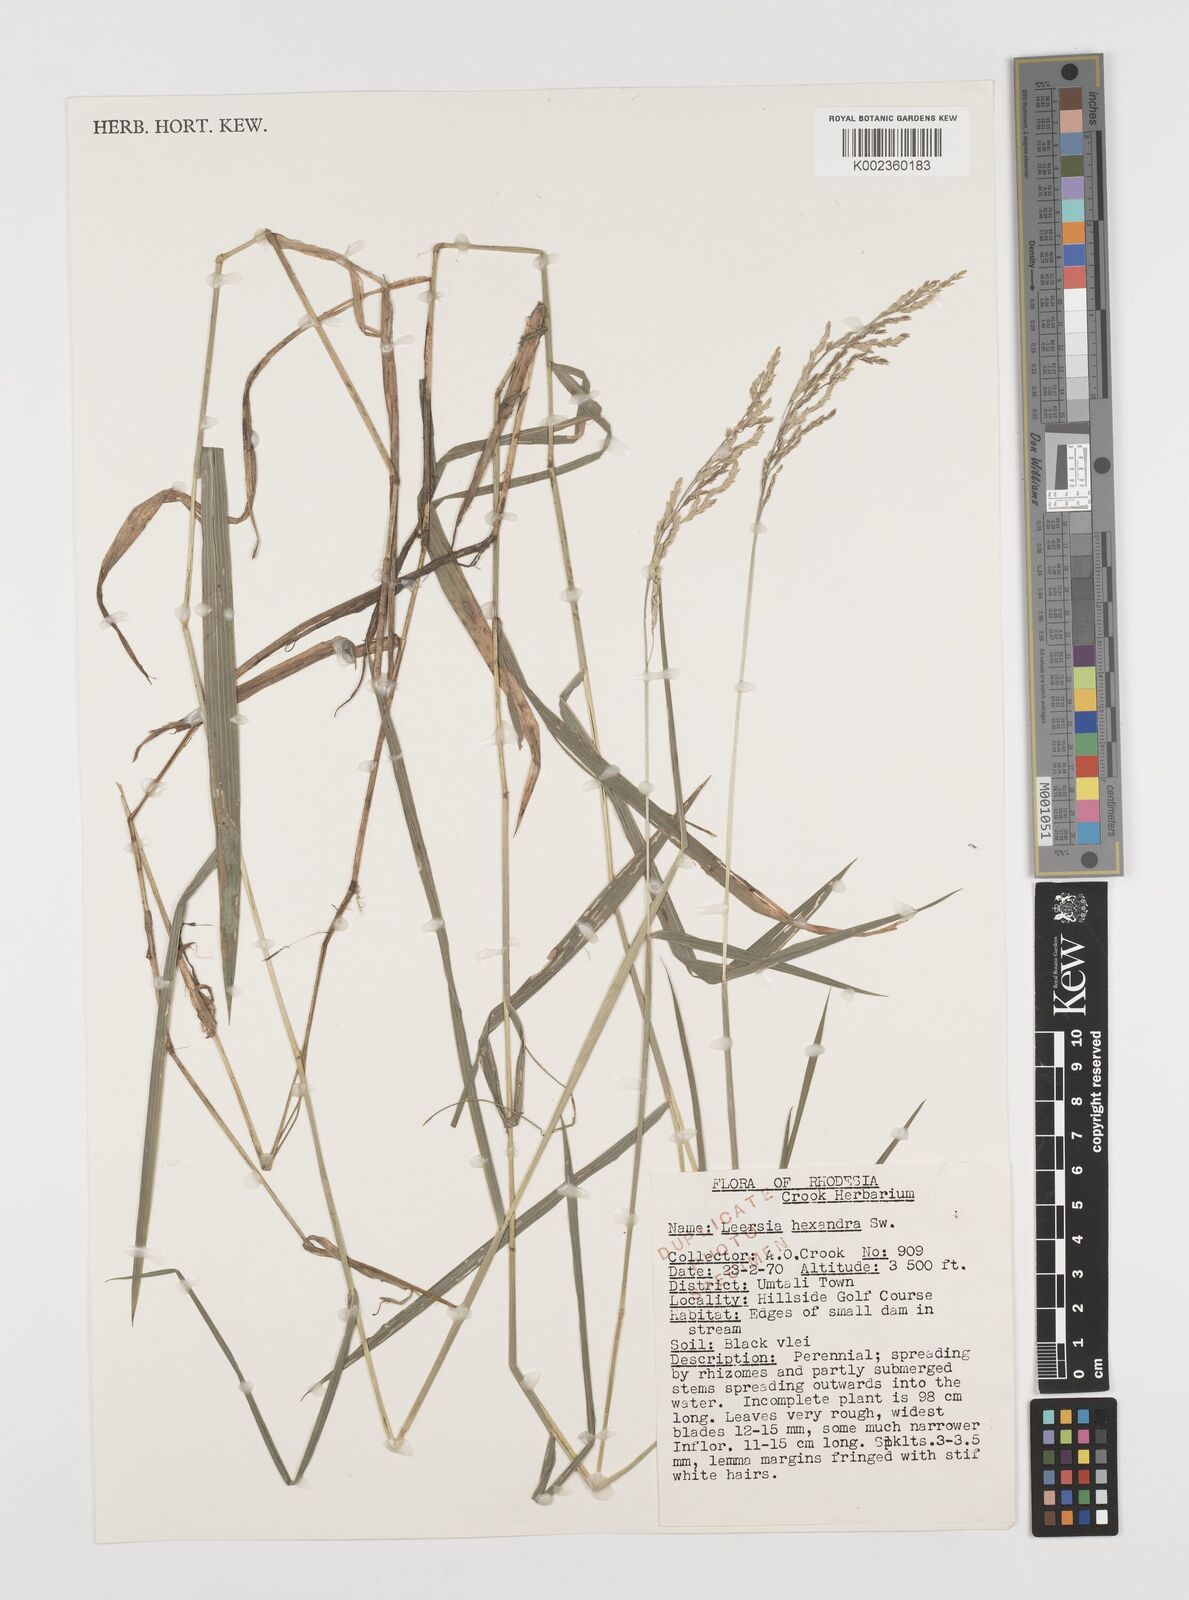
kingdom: Plantae
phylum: Tracheophyta
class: Liliopsida
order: Poales
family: Poaceae
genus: Leersia
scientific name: Leersia hexandra
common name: Southern cut grass
